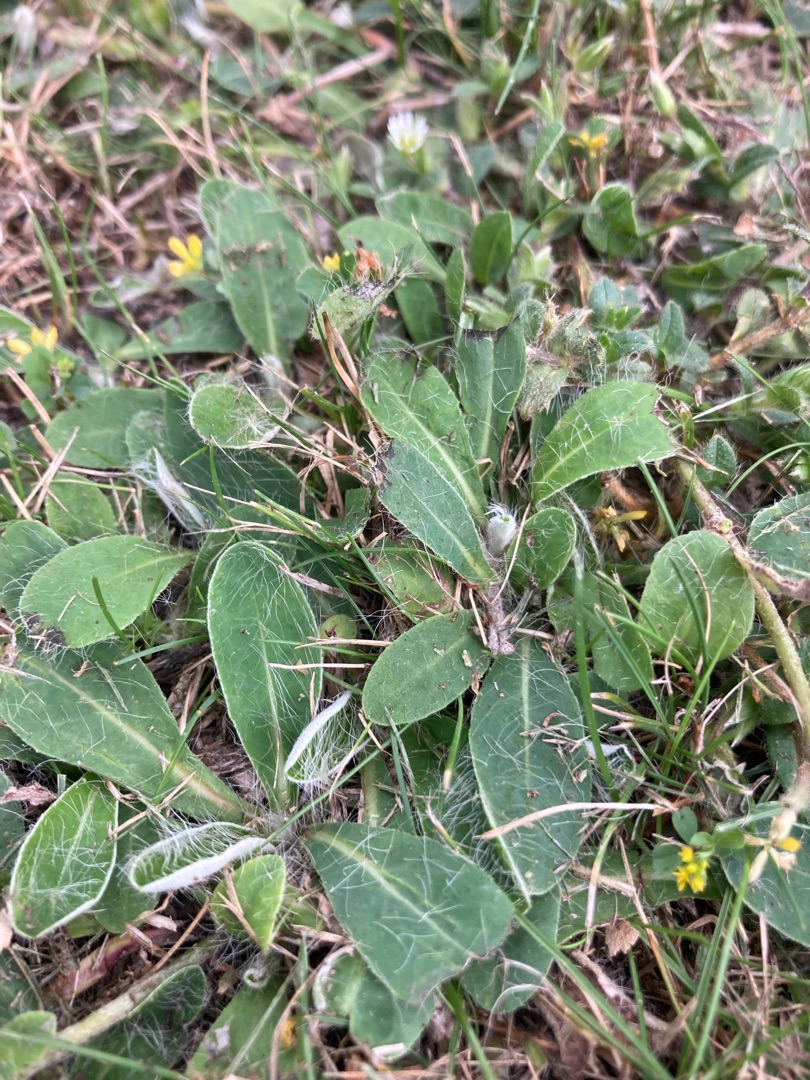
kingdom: Plantae
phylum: Tracheophyta
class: Magnoliopsida
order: Asterales
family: Asteraceae
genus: Pilosella
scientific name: Pilosella officinarum
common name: Håret høgeurt
